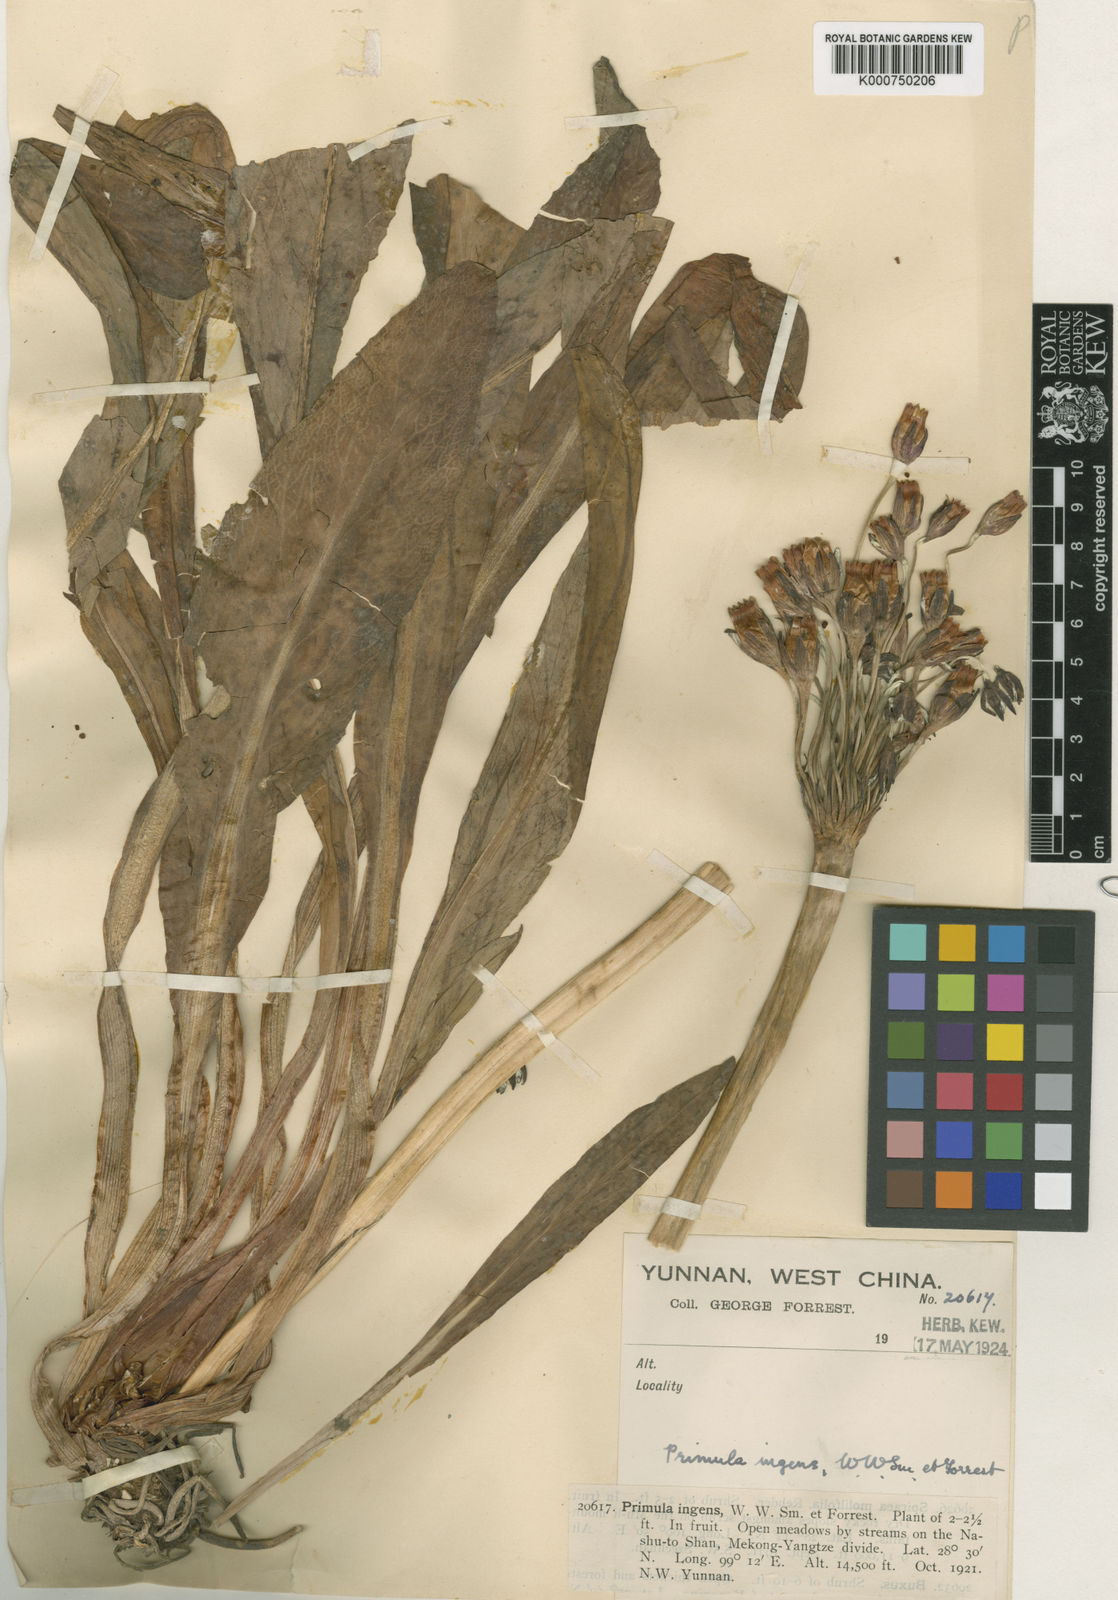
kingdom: Plantae
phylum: Tracheophyta
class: Magnoliopsida
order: Ericales
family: Primulaceae
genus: Primula
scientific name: Primula chionantha
